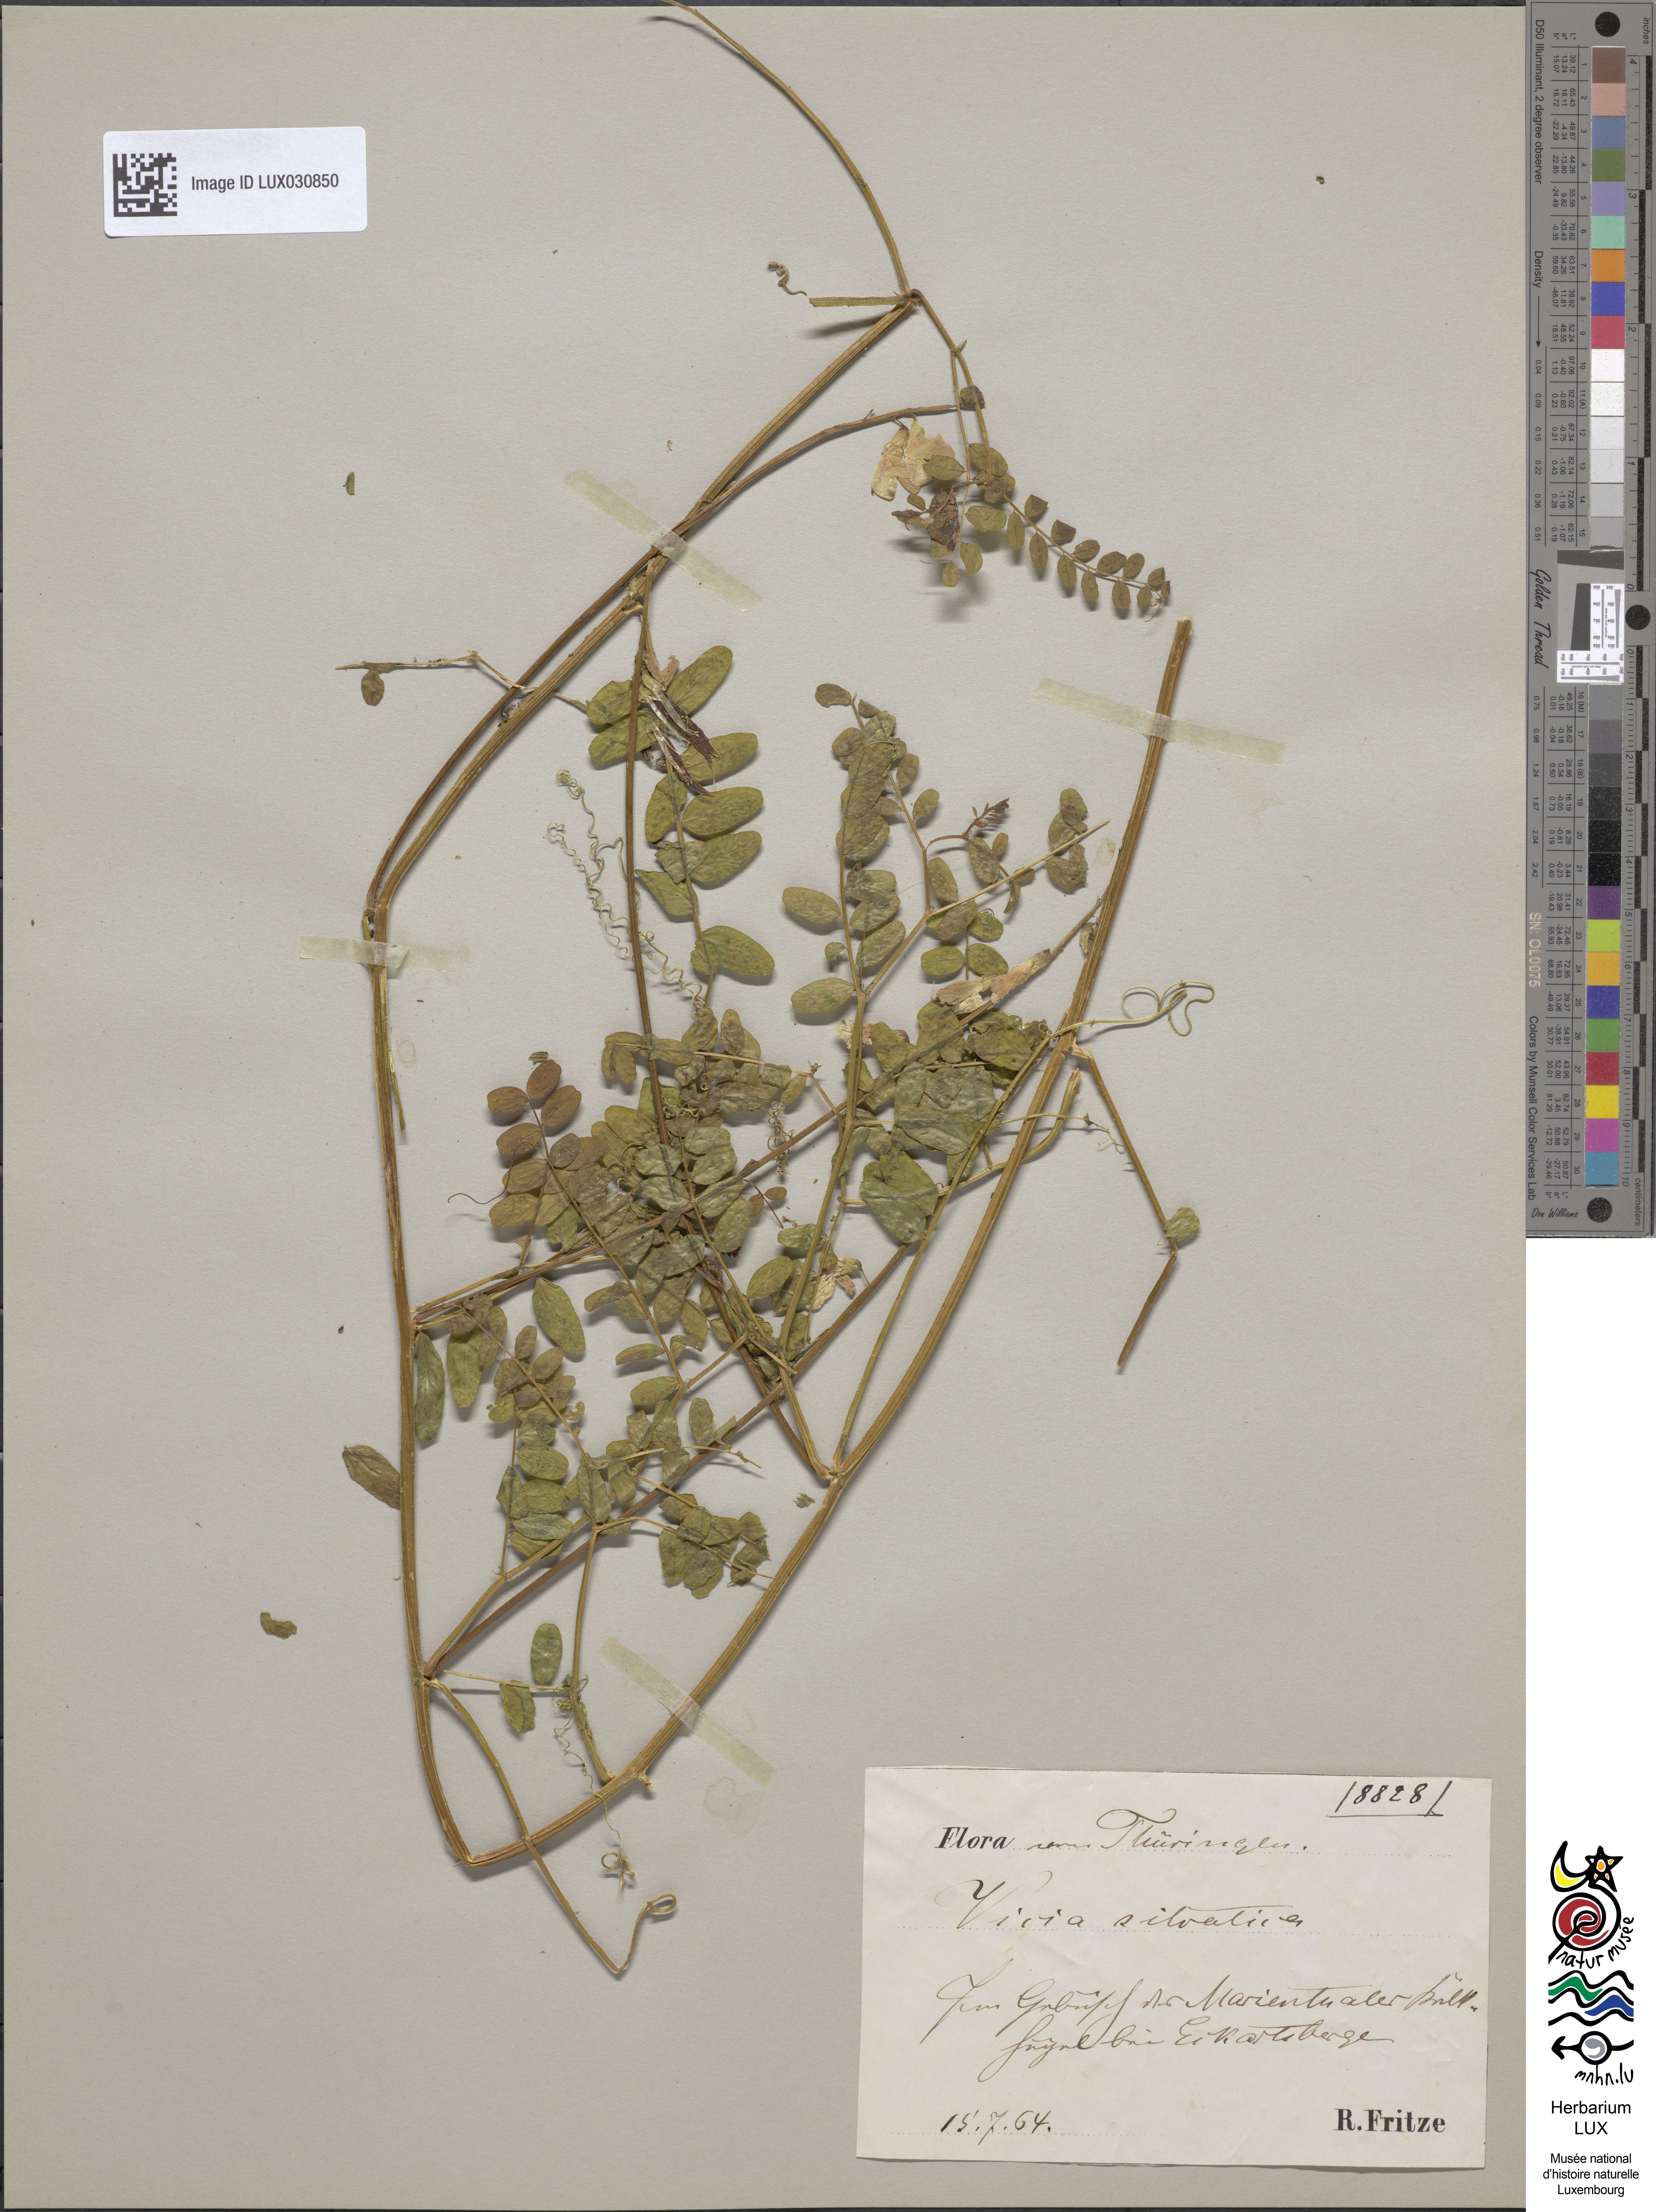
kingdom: Plantae
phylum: Tracheophyta
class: Magnoliopsida
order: Fabales
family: Fabaceae
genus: Vicia
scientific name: Vicia sylvatica
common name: Wood vetch
